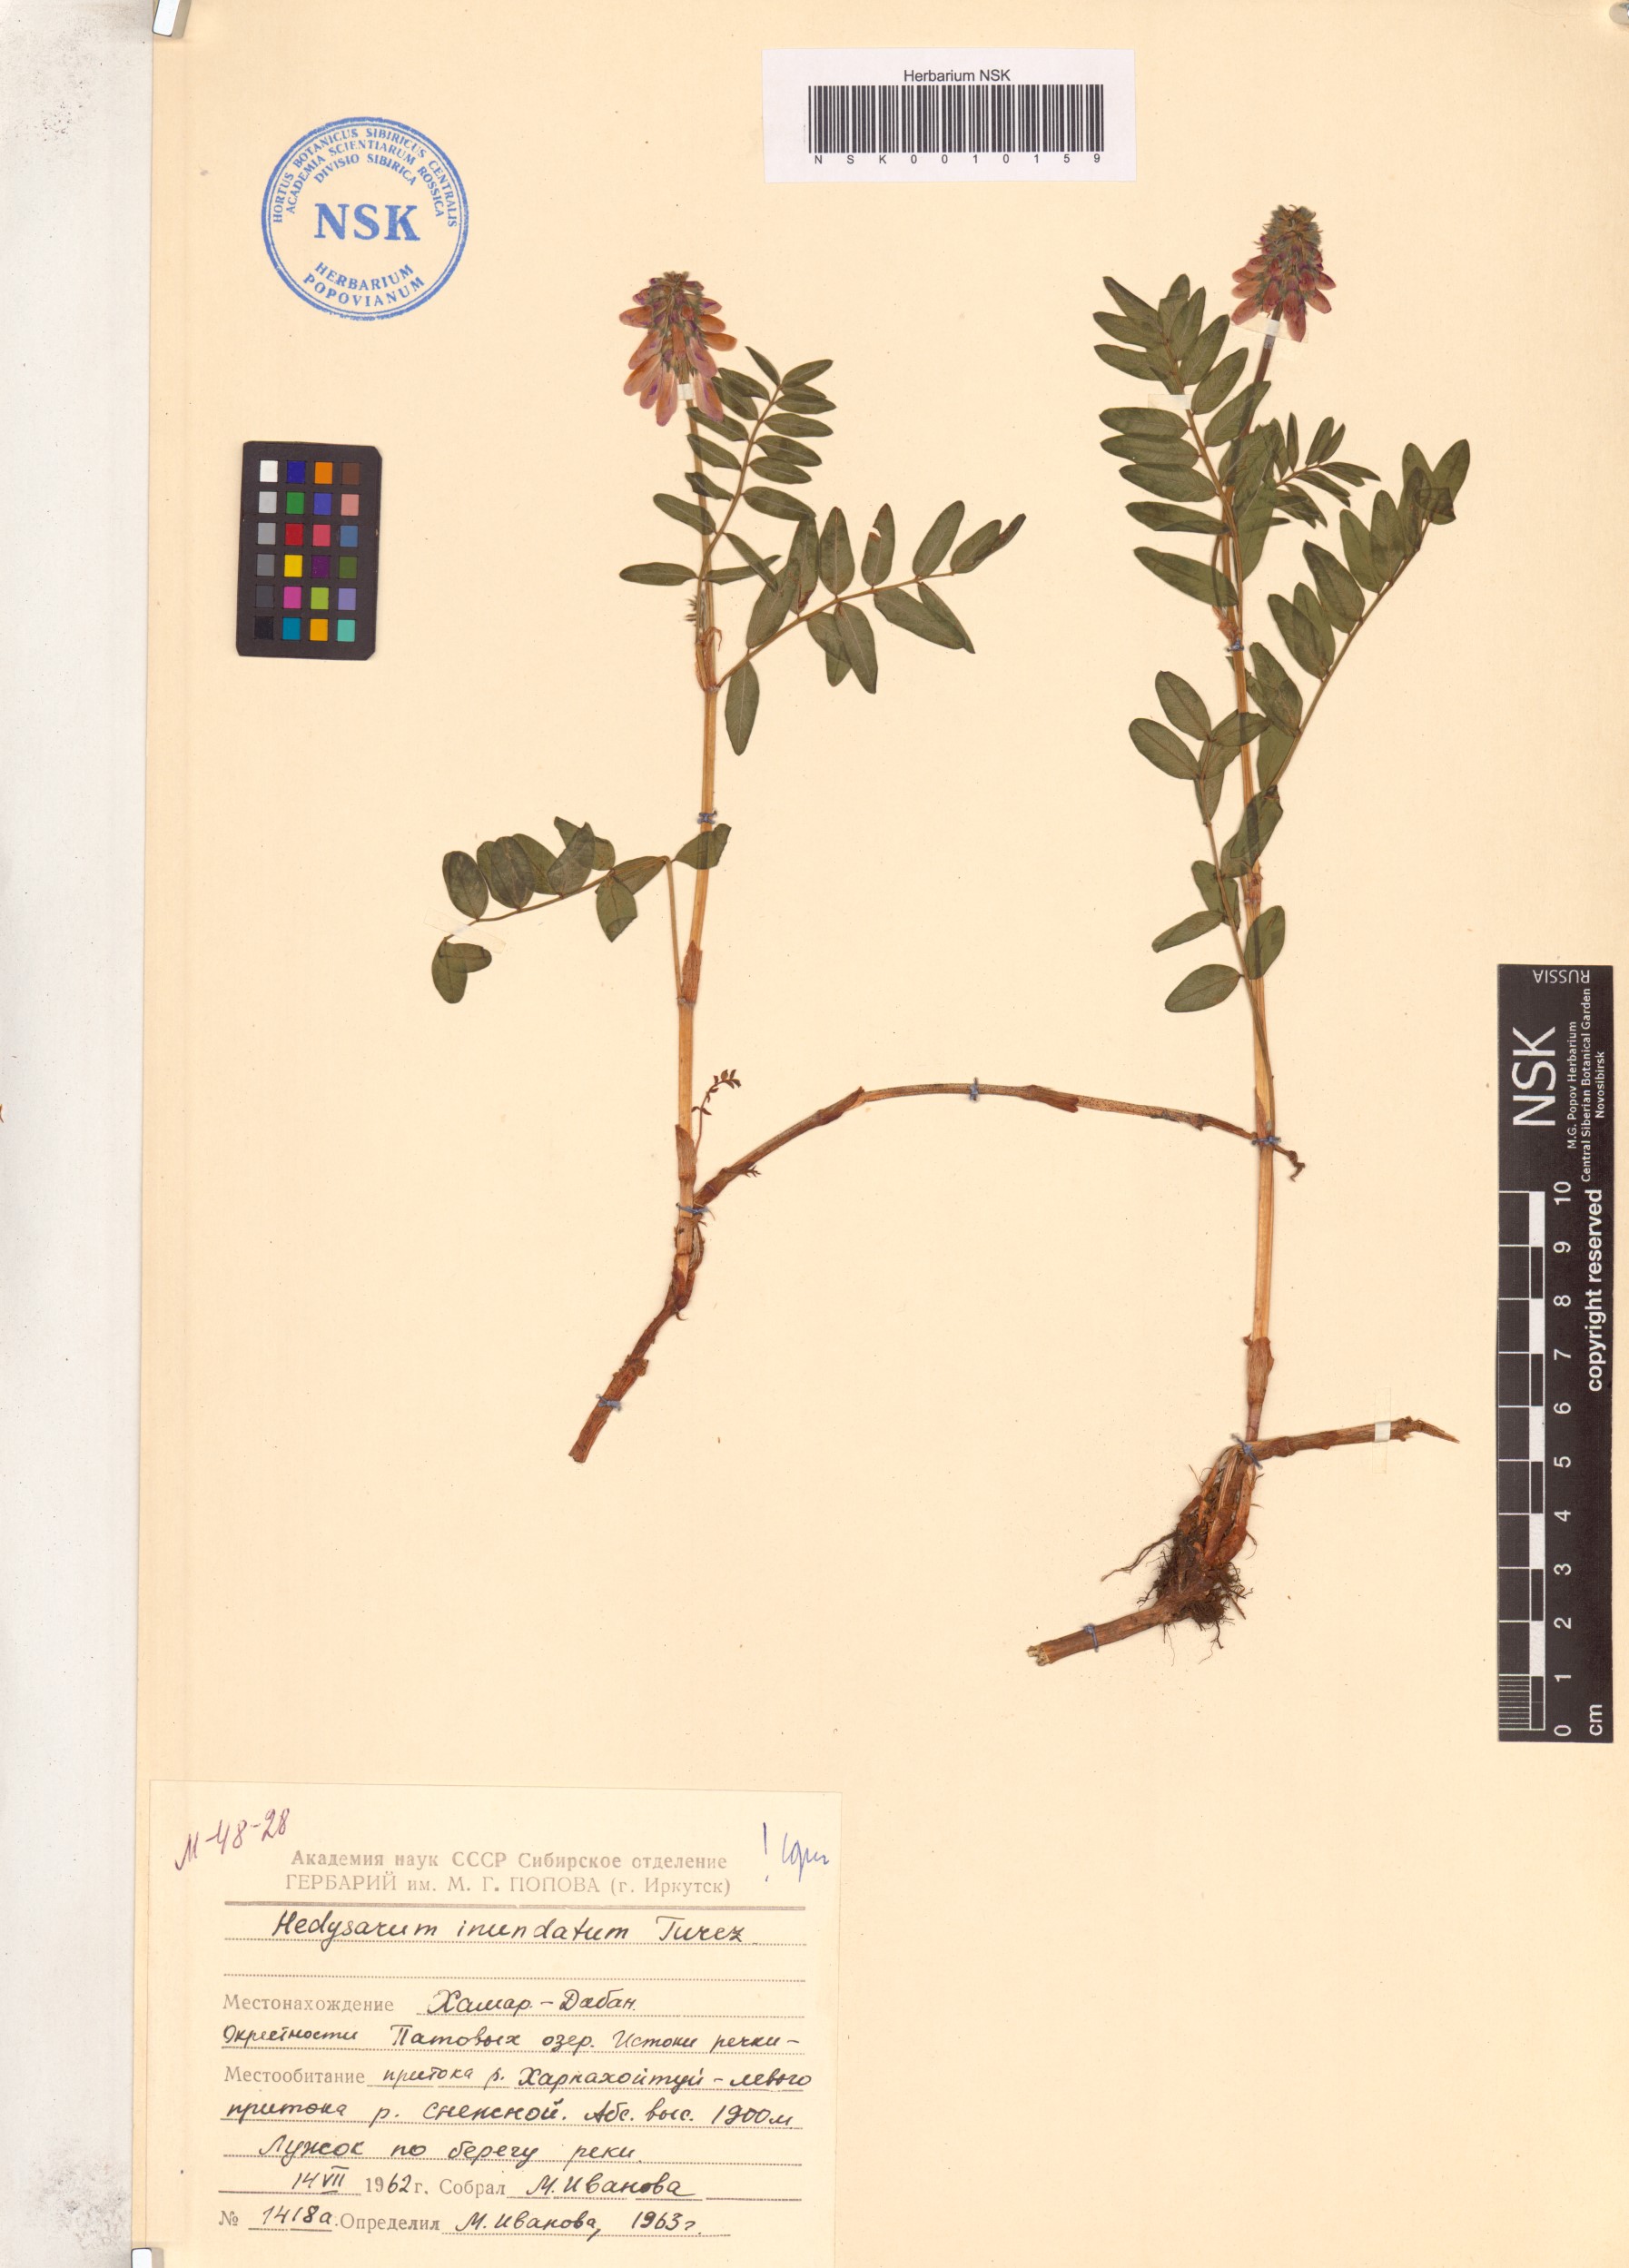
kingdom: Plantae
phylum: Tracheophyta
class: Magnoliopsida
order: Fabales
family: Fabaceae
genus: Hedysarum
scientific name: Hedysarum inundatum
